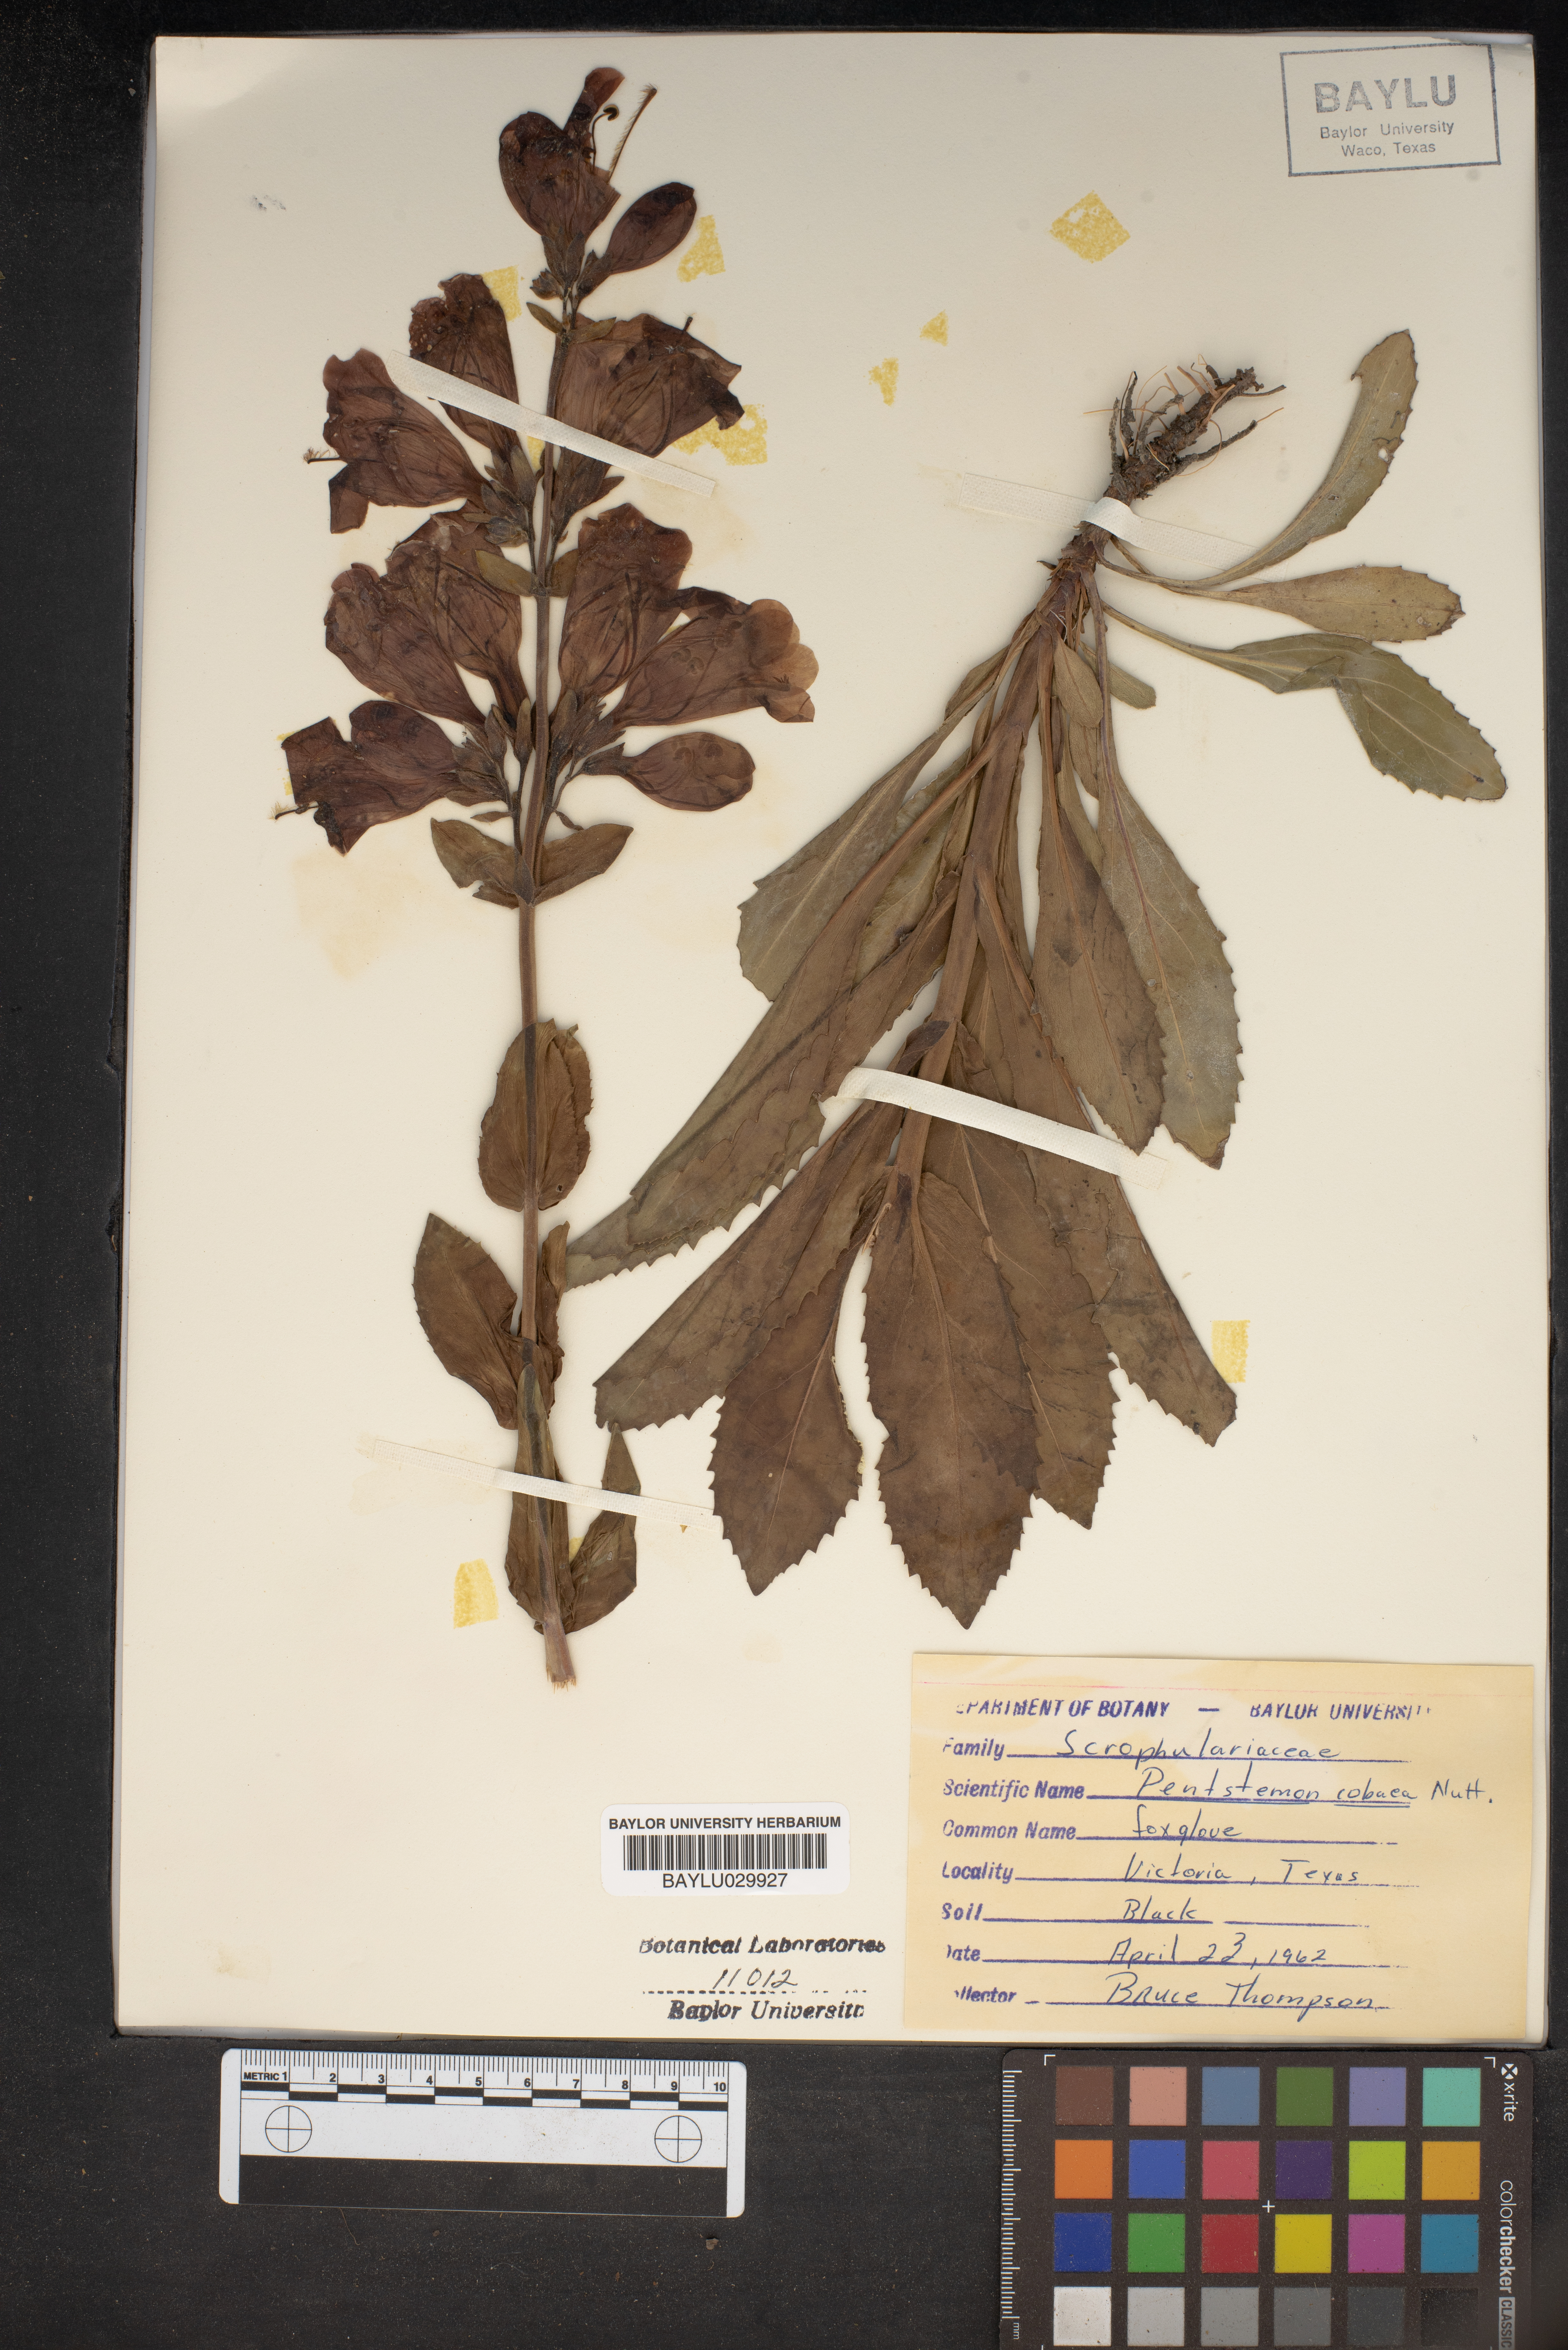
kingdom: Plantae
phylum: Tracheophyta
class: Magnoliopsida
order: Lamiales
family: Plantaginaceae
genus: Penstemon
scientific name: Penstemon
